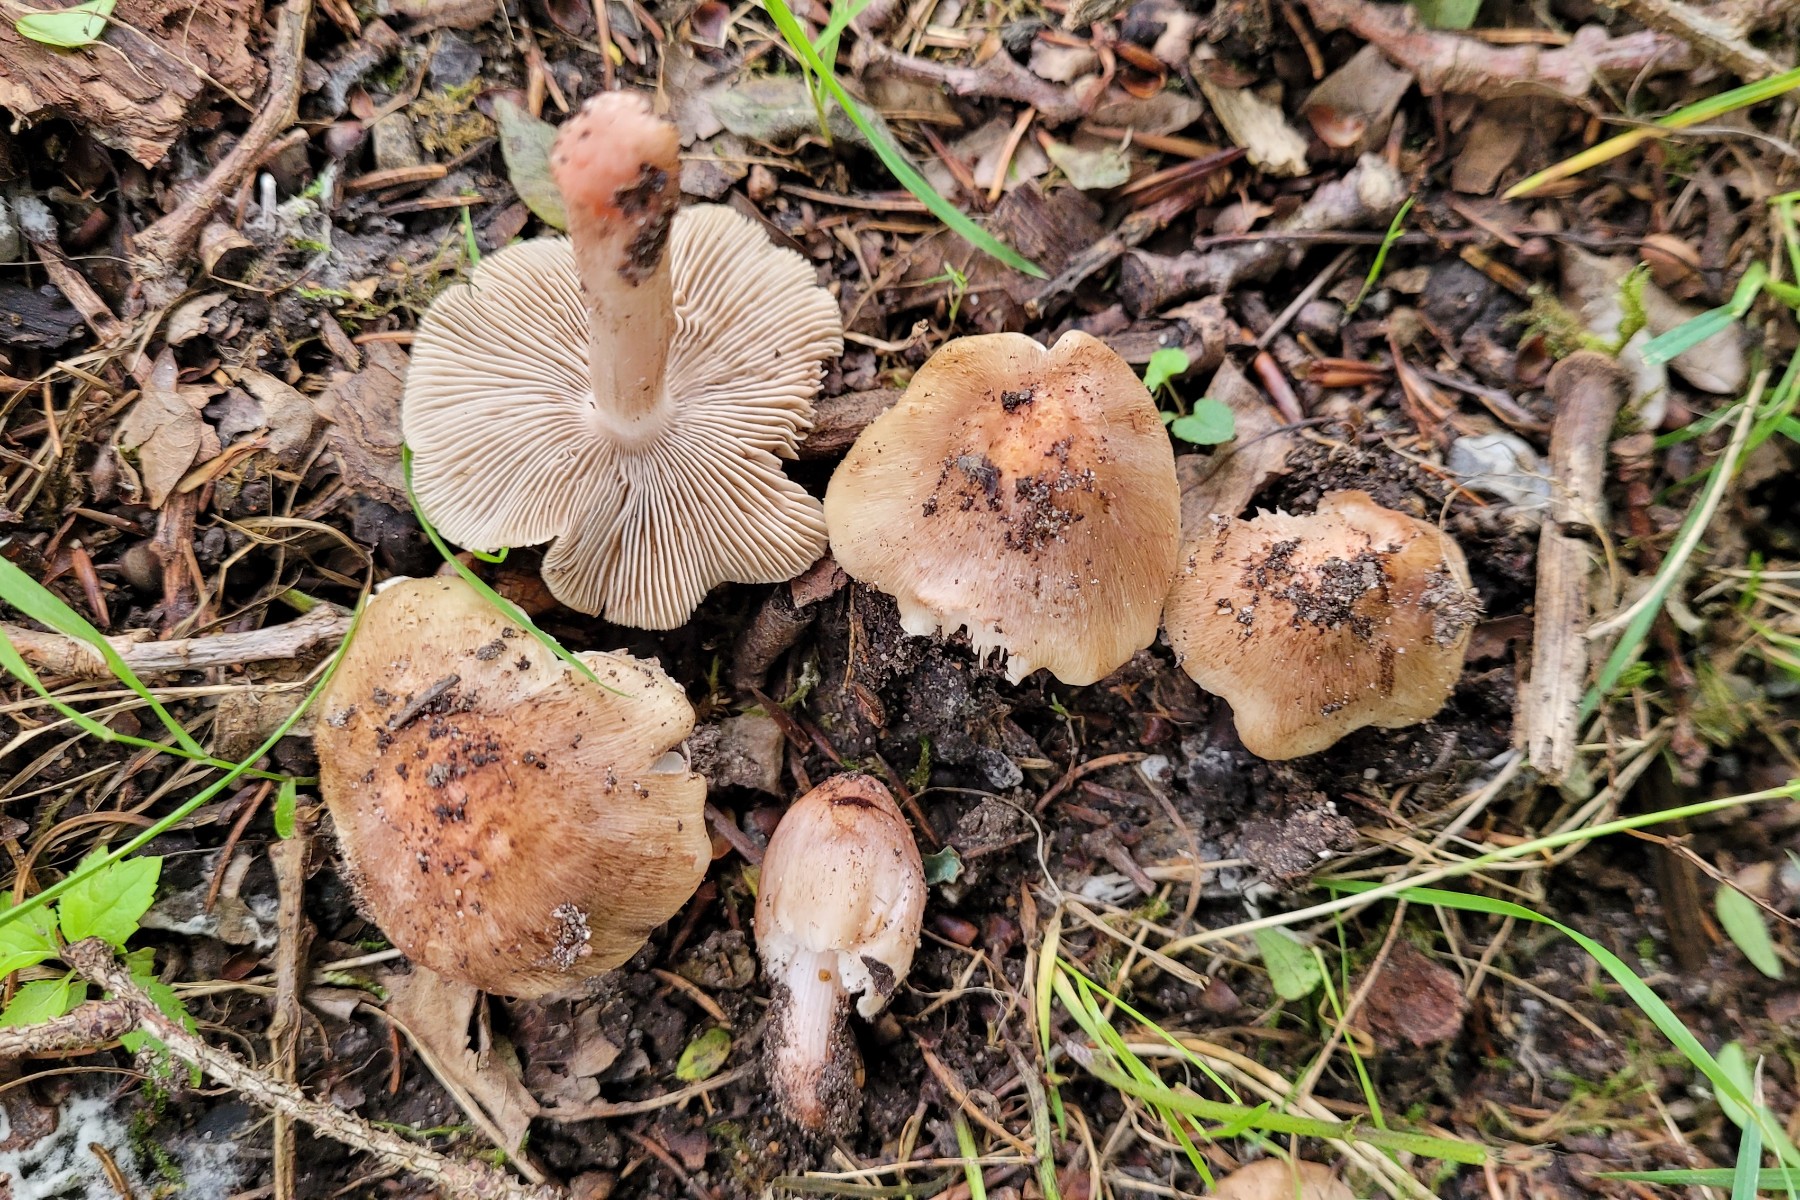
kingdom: Fungi
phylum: Basidiomycota
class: Agaricomycetes
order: Agaricales
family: Inocybaceae
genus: Inosperma
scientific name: Inosperma adaequatum
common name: vinrød trævlhat
